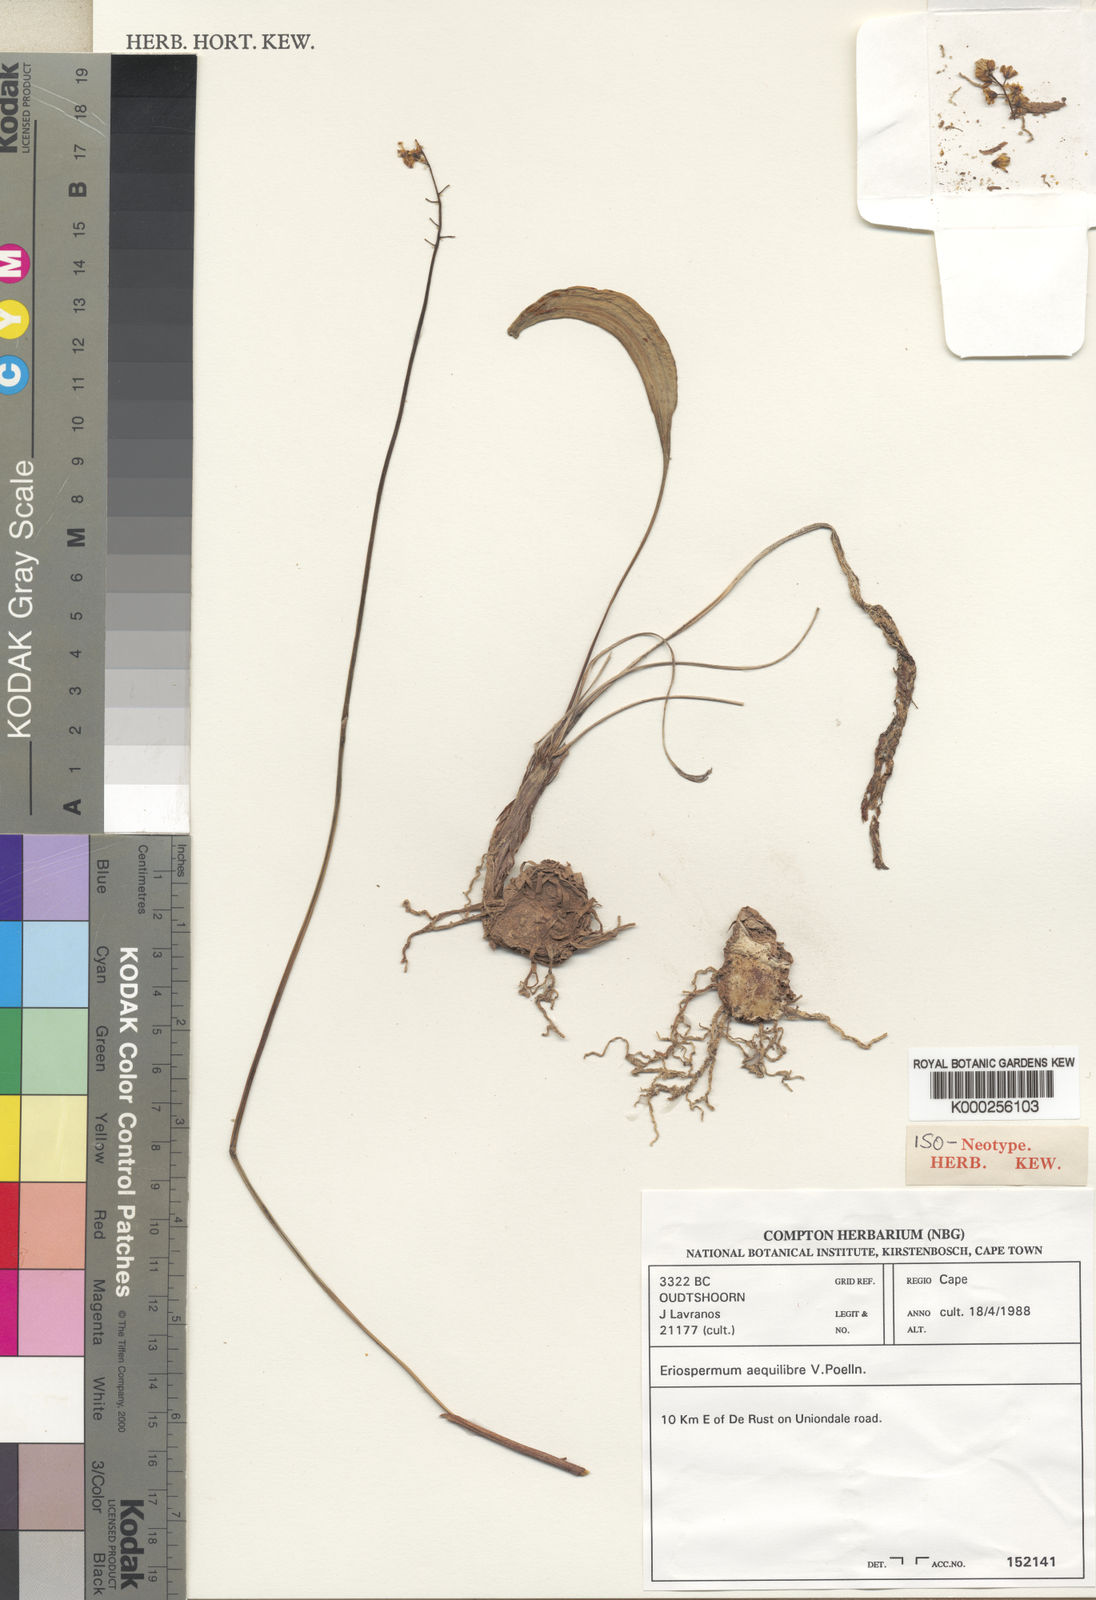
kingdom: Plantae
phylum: Tracheophyta
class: Liliopsida
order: Asparagales
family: Asparagaceae
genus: Eriospermum
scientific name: Eriospermum aequilibre
